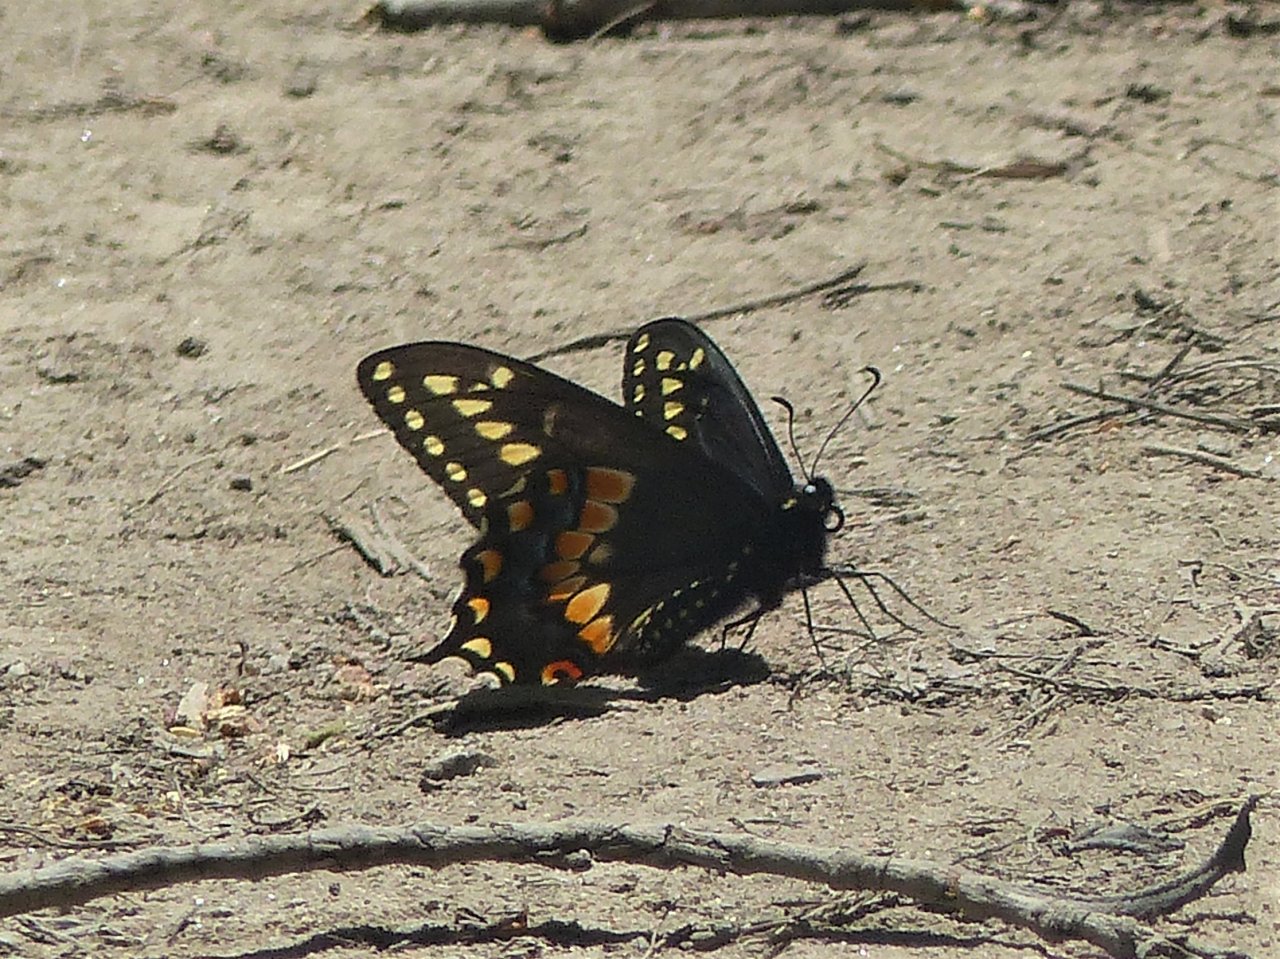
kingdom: Animalia
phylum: Arthropoda
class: Insecta
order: Lepidoptera
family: Papilionidae
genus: Papilio
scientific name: Papilio polyxenes
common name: Black Swallowtail
